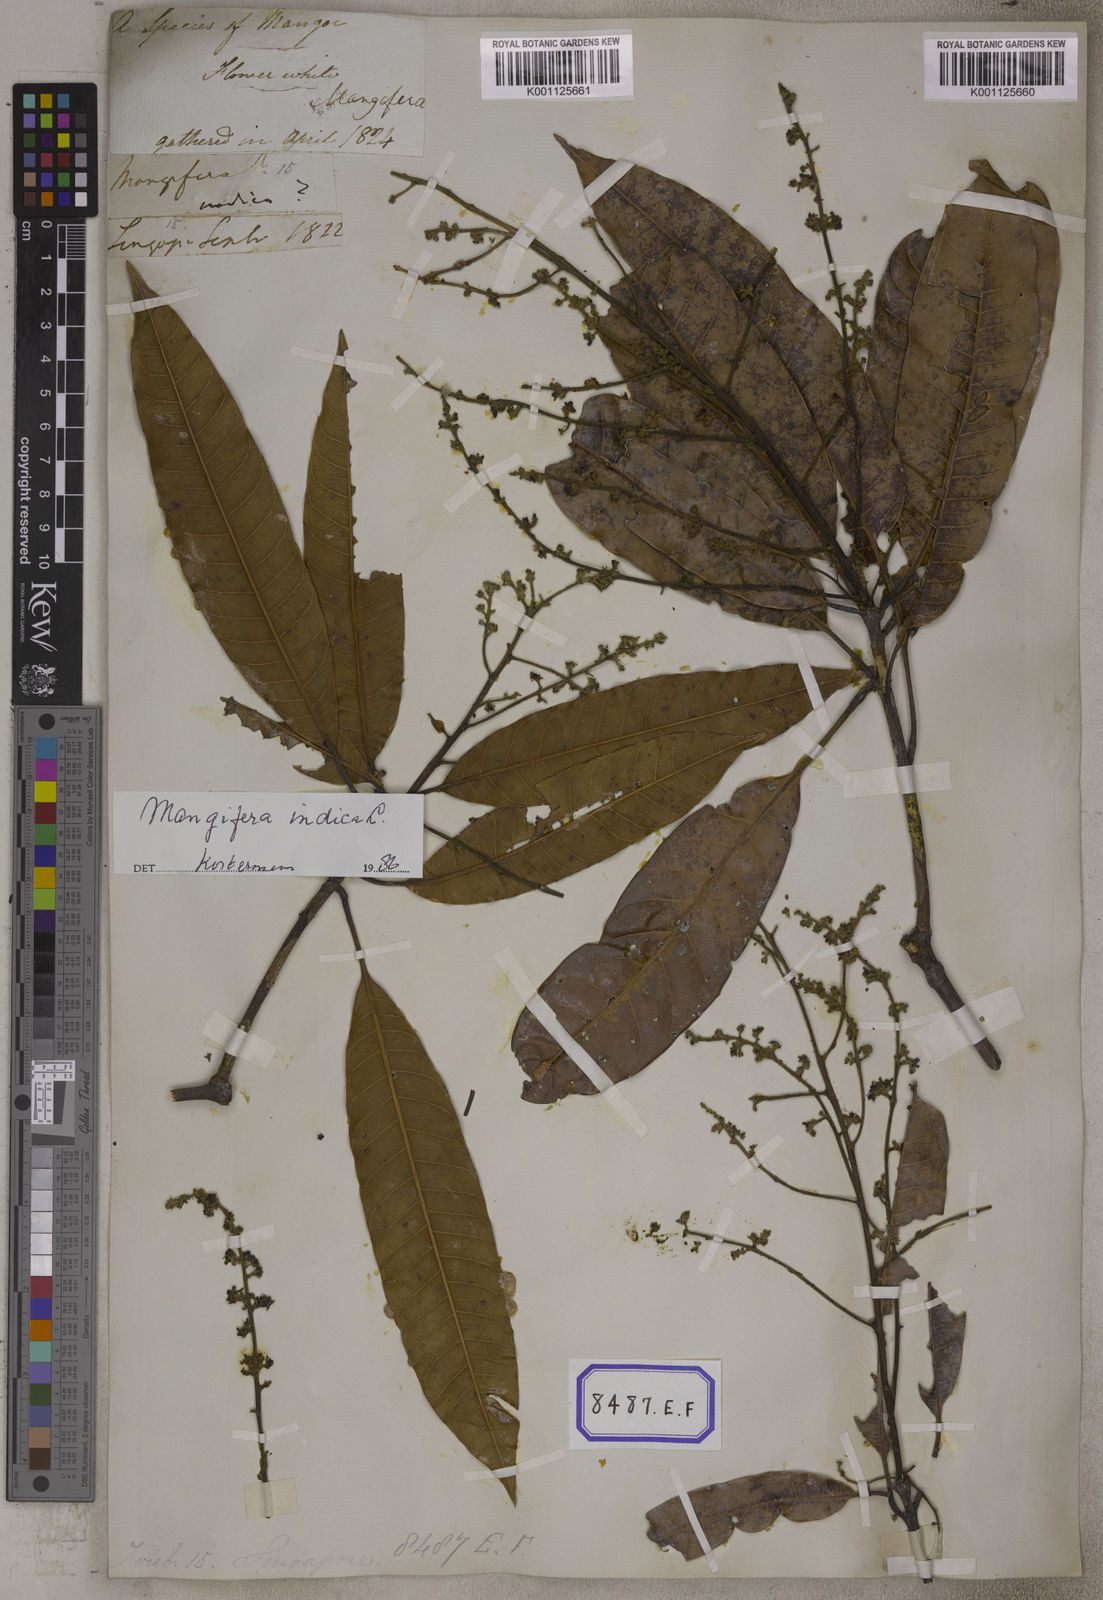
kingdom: Plantae
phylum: Tracheophyta
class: Magnoliopsida
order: Sapindales
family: Anacardiaceae
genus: Mangifera
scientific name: Mangifera indica
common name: Mango
